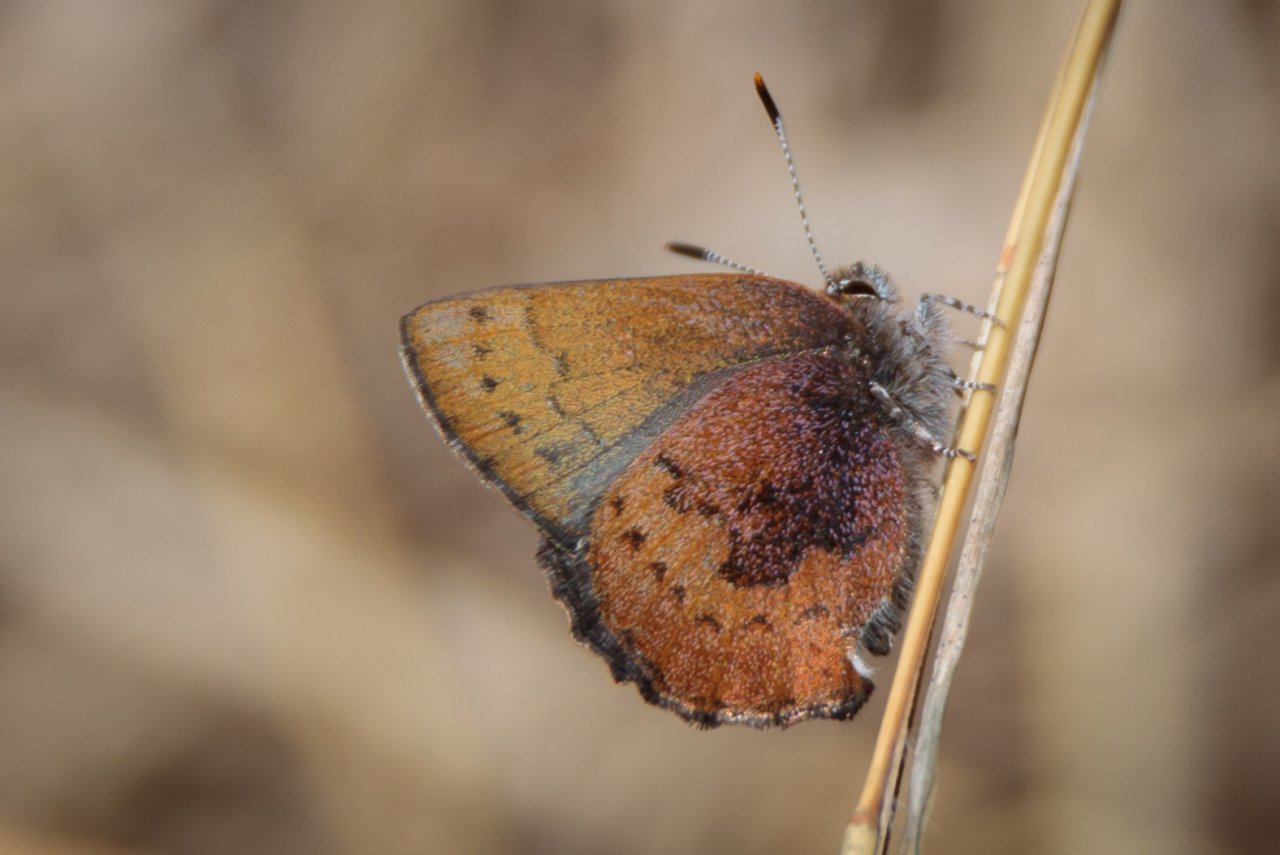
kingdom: Animalia
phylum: Arthropoda
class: Insecta
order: Lepidoptera
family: Lycaenidae
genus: Incisalia
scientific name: Incisalia irioides
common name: Brown Elfin
